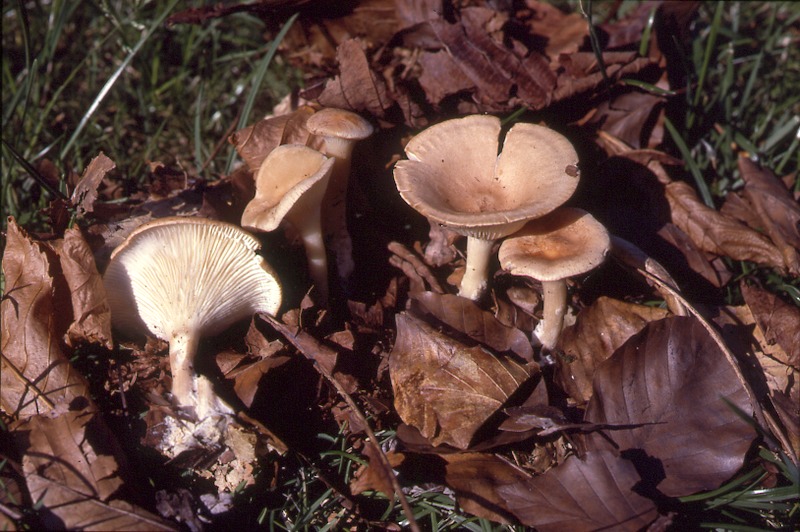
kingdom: Fungi
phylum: Basidiomycota
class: Agaricomycetes
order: Agaricales
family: Tricholomataceae
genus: Clitocybe
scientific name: Clitocybe infundibuliformis
